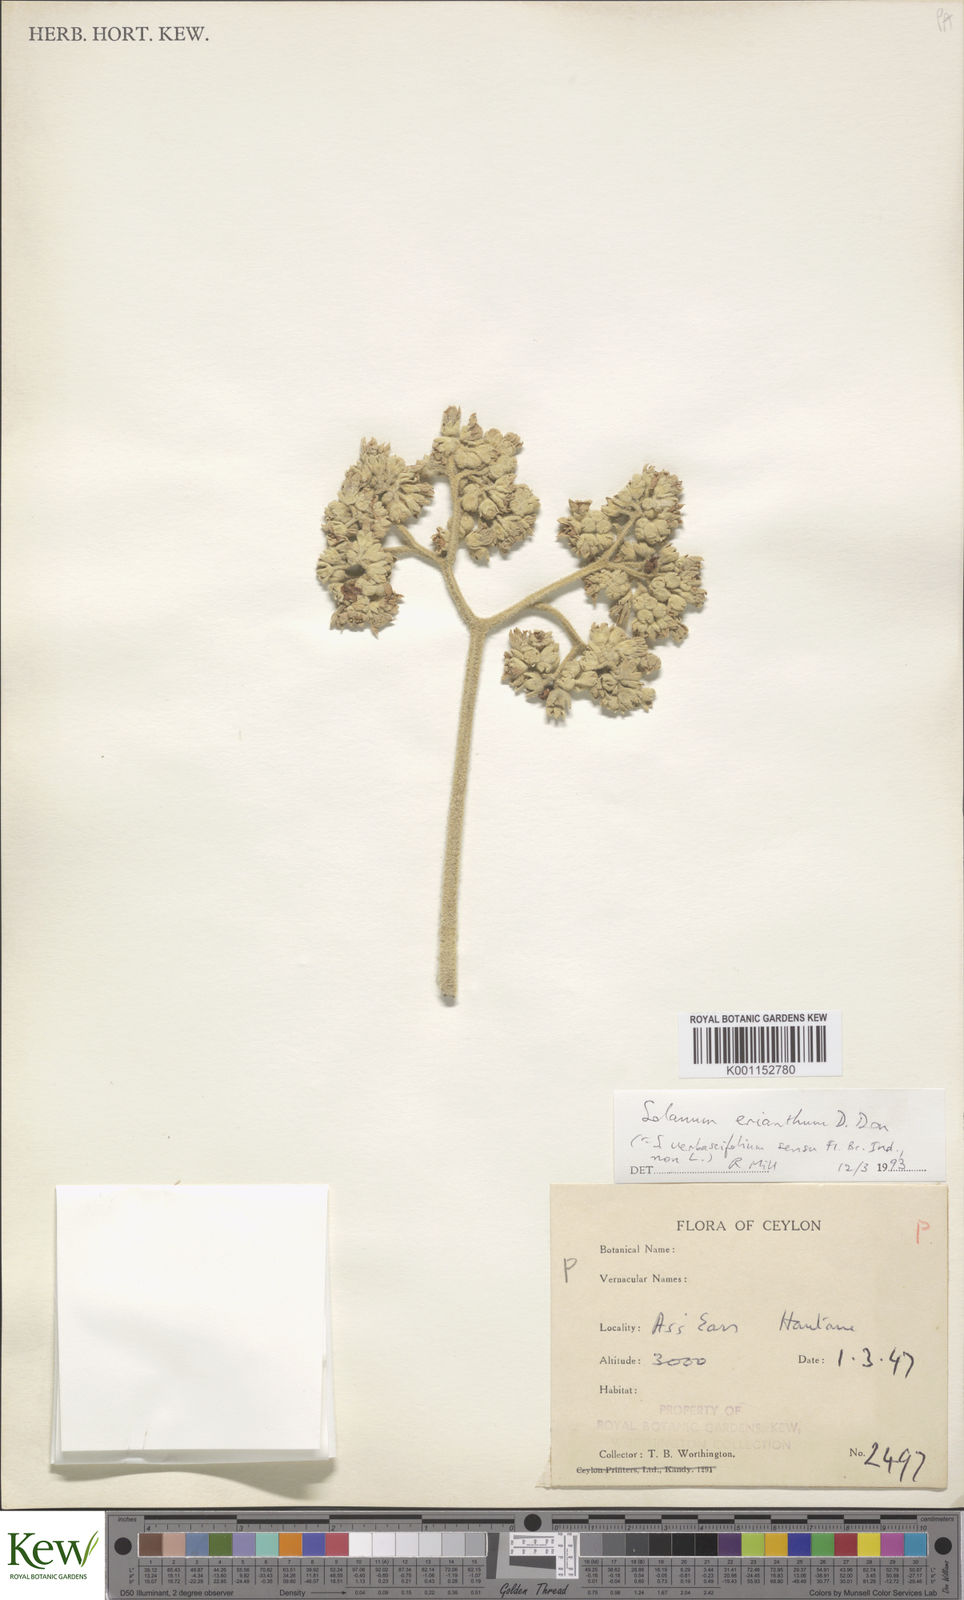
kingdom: Plantae
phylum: Tracheophyta
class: Magnoliopsida
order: Solanales
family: Solanaceae
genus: Solanum
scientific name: Solanum erianthum
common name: Tobacco-tree
